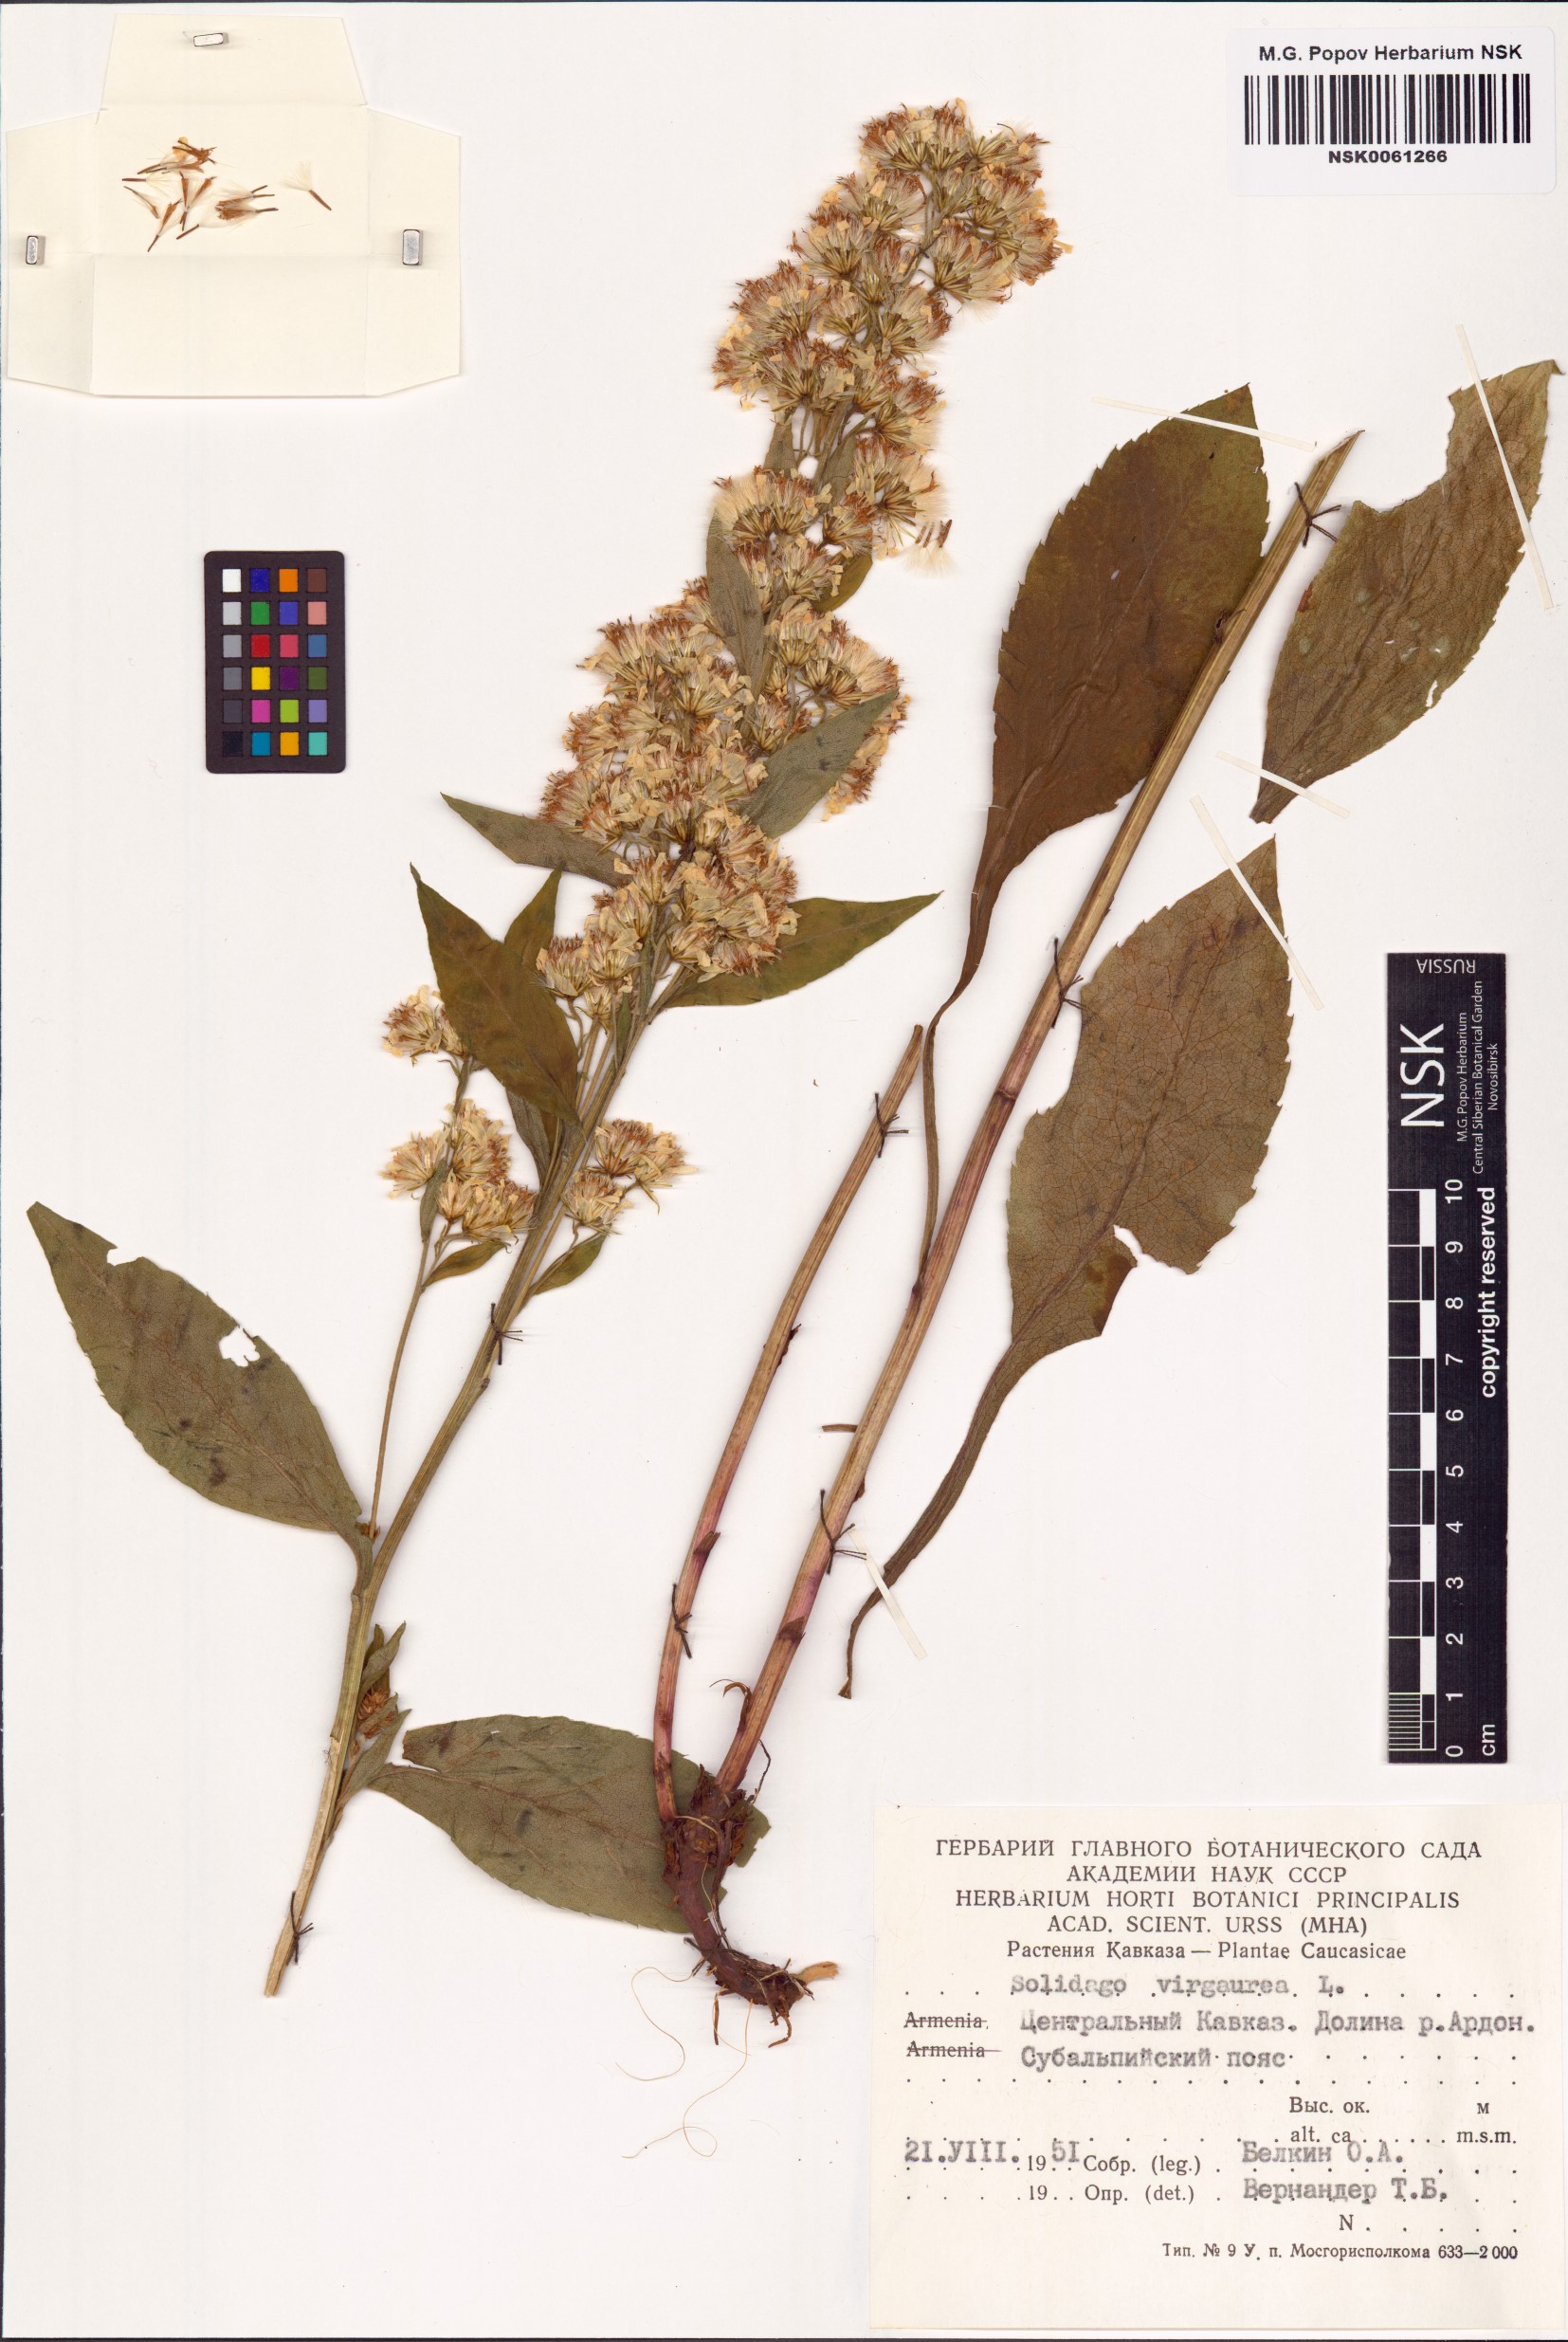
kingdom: Plantae
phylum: Tracheophyta
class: Magnoliopsida
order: Asterales
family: Asteraceae
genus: Solidago
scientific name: Solidago virgaurea
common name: Goldenrod
